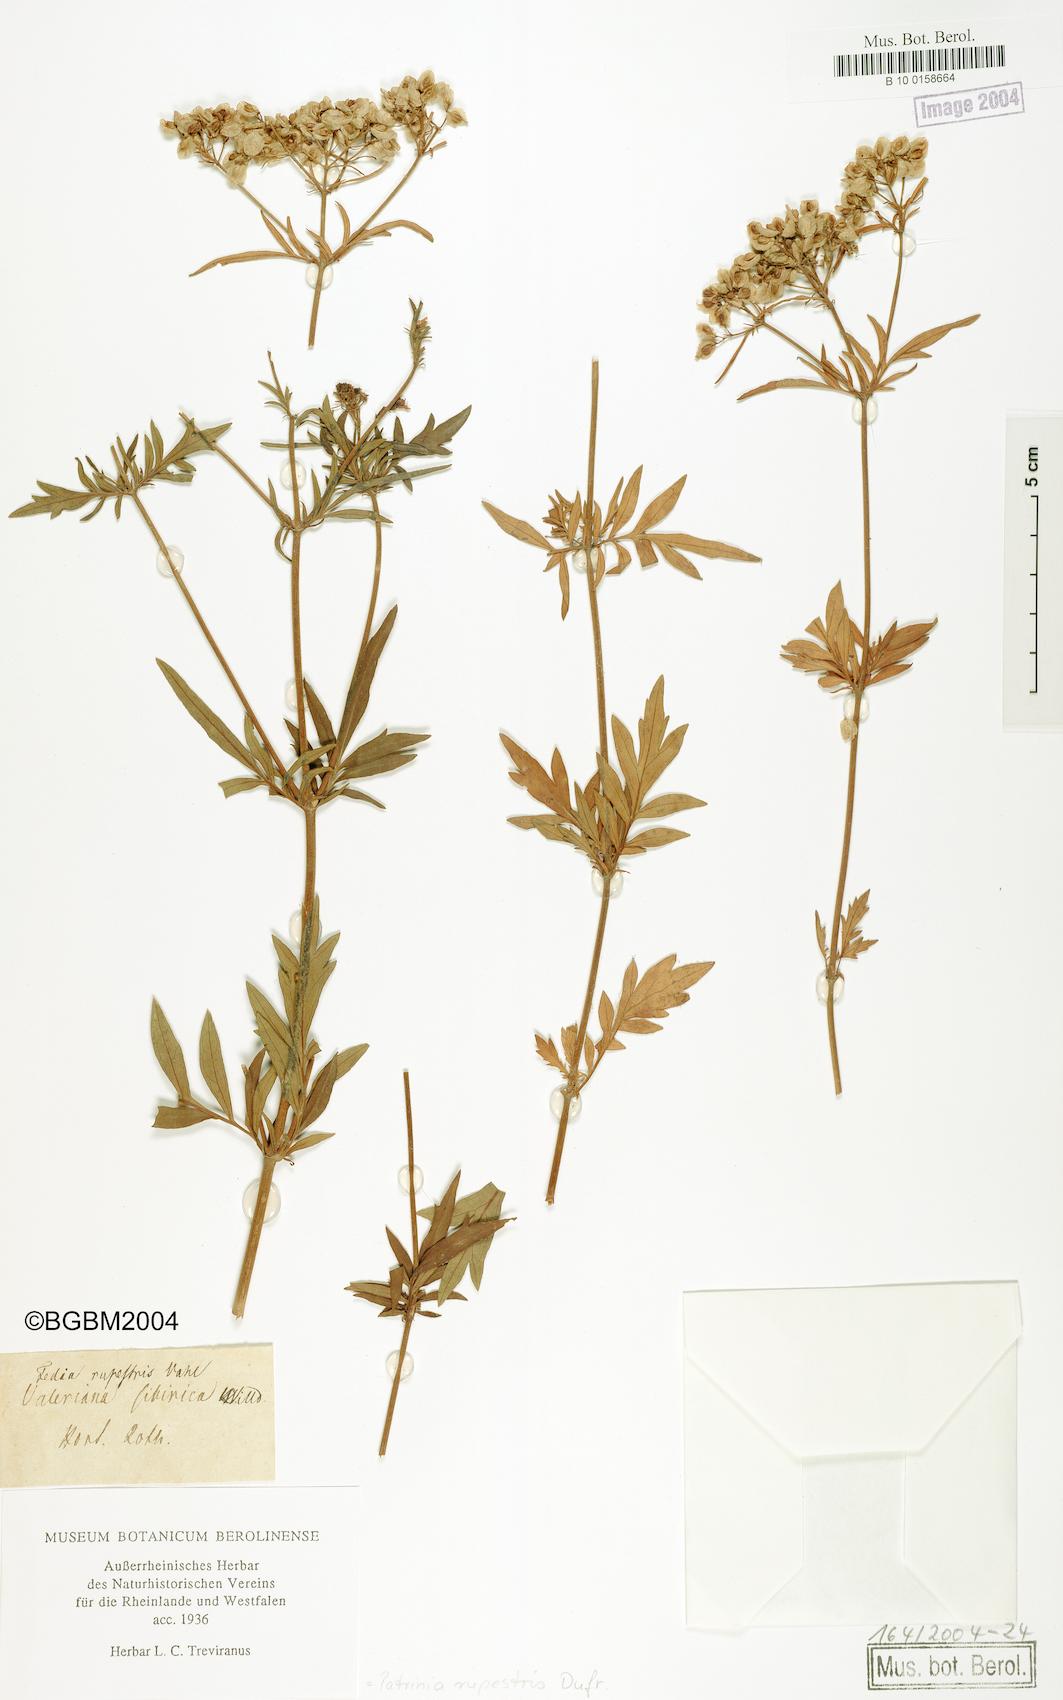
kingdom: Plantae
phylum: Tracheophyta
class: Magnoliopsida
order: Dipsacales
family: Caprifoliaceae
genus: Patrinia
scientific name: Patrinia rupestris
